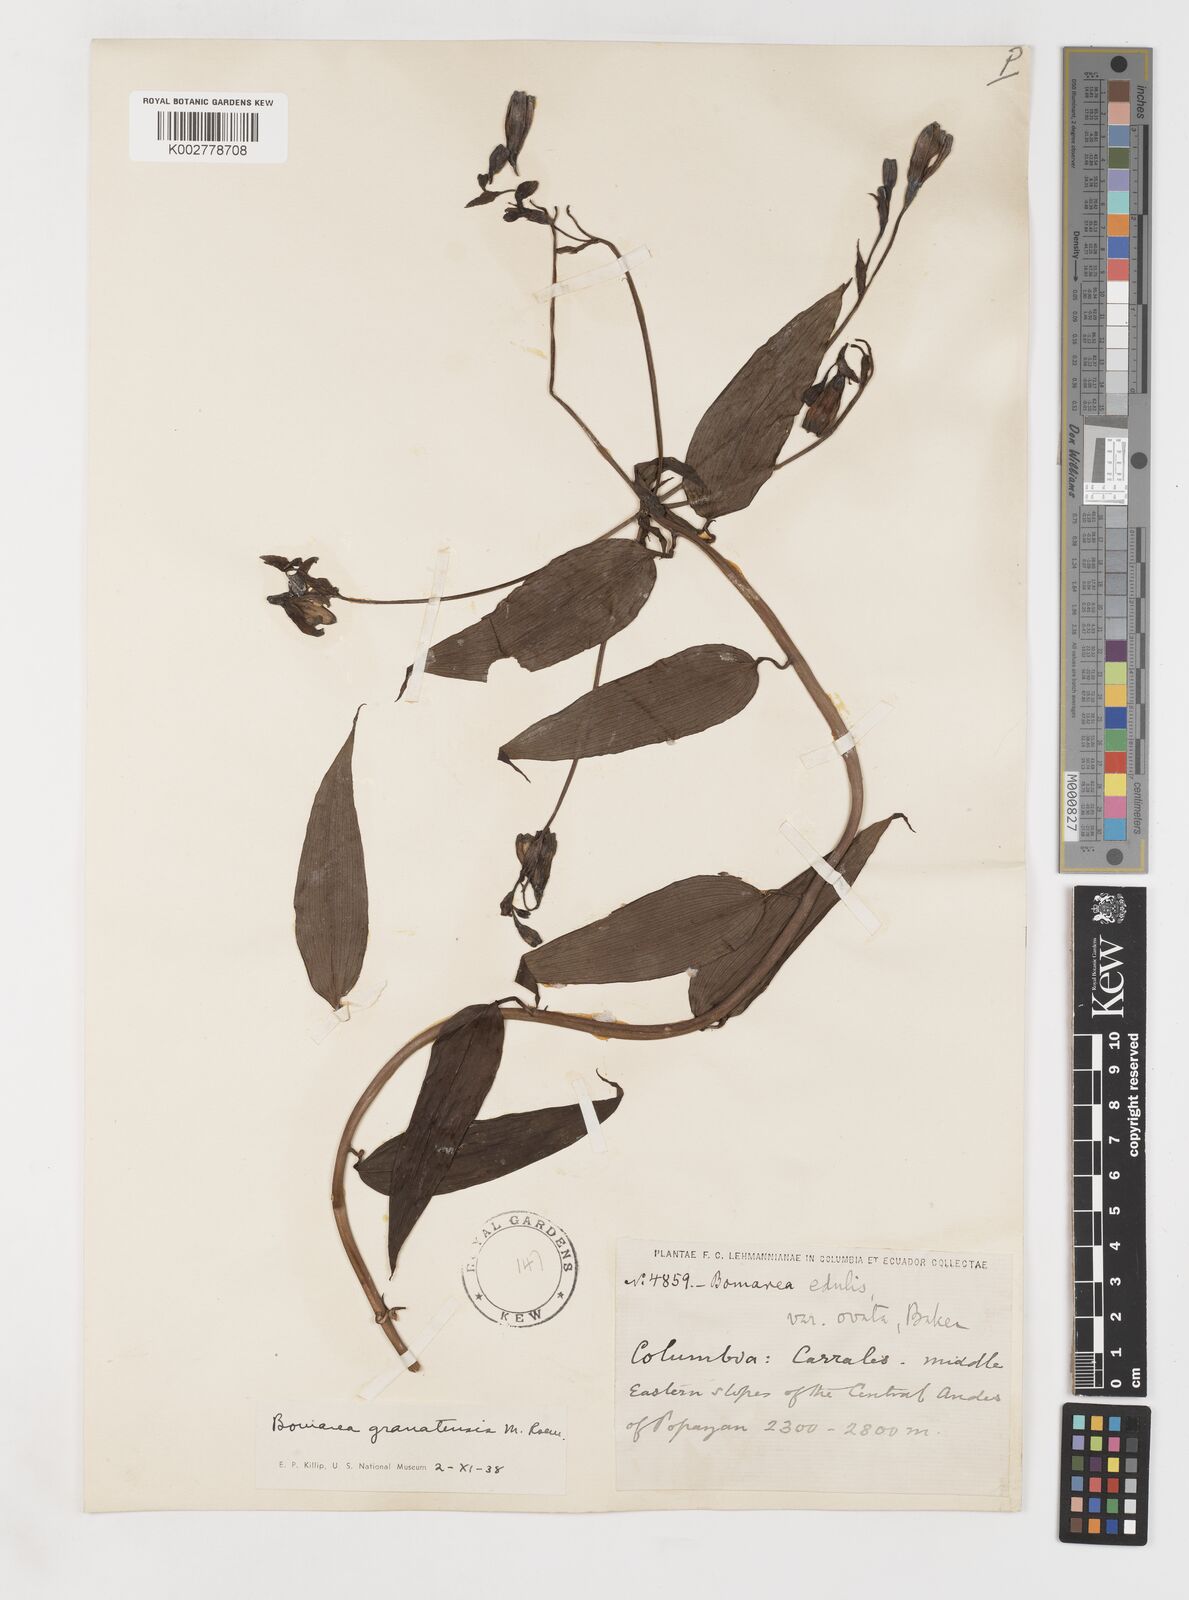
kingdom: Plantae
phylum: Tracheophyta
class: Liliopsida
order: Liliales
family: Alstroemeriaceae
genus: Bomarea
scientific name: Bomarea edulis
